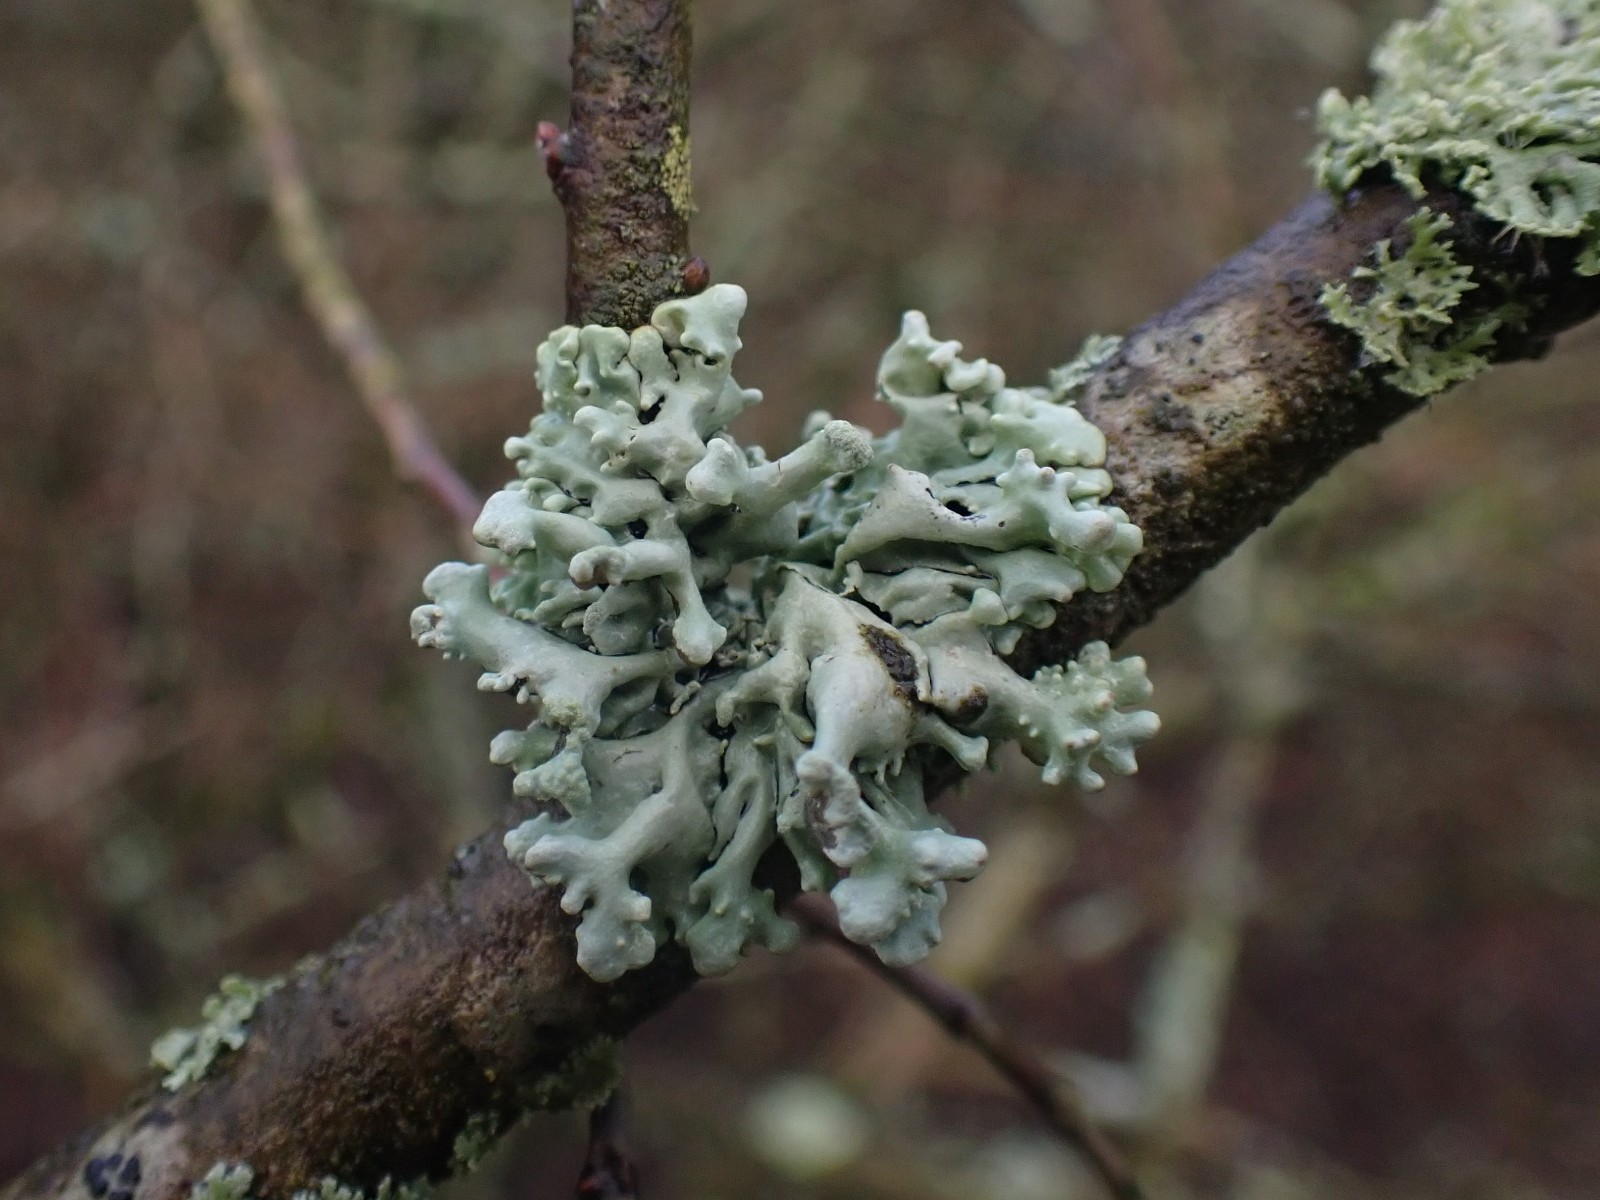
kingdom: Fungi
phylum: Ascomycota
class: Lecanoromycetes
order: Lecanorales
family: Parmeliaceae
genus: Hypogymnia
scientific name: Hypogymnia tubulosa
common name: finger-kvistlav
